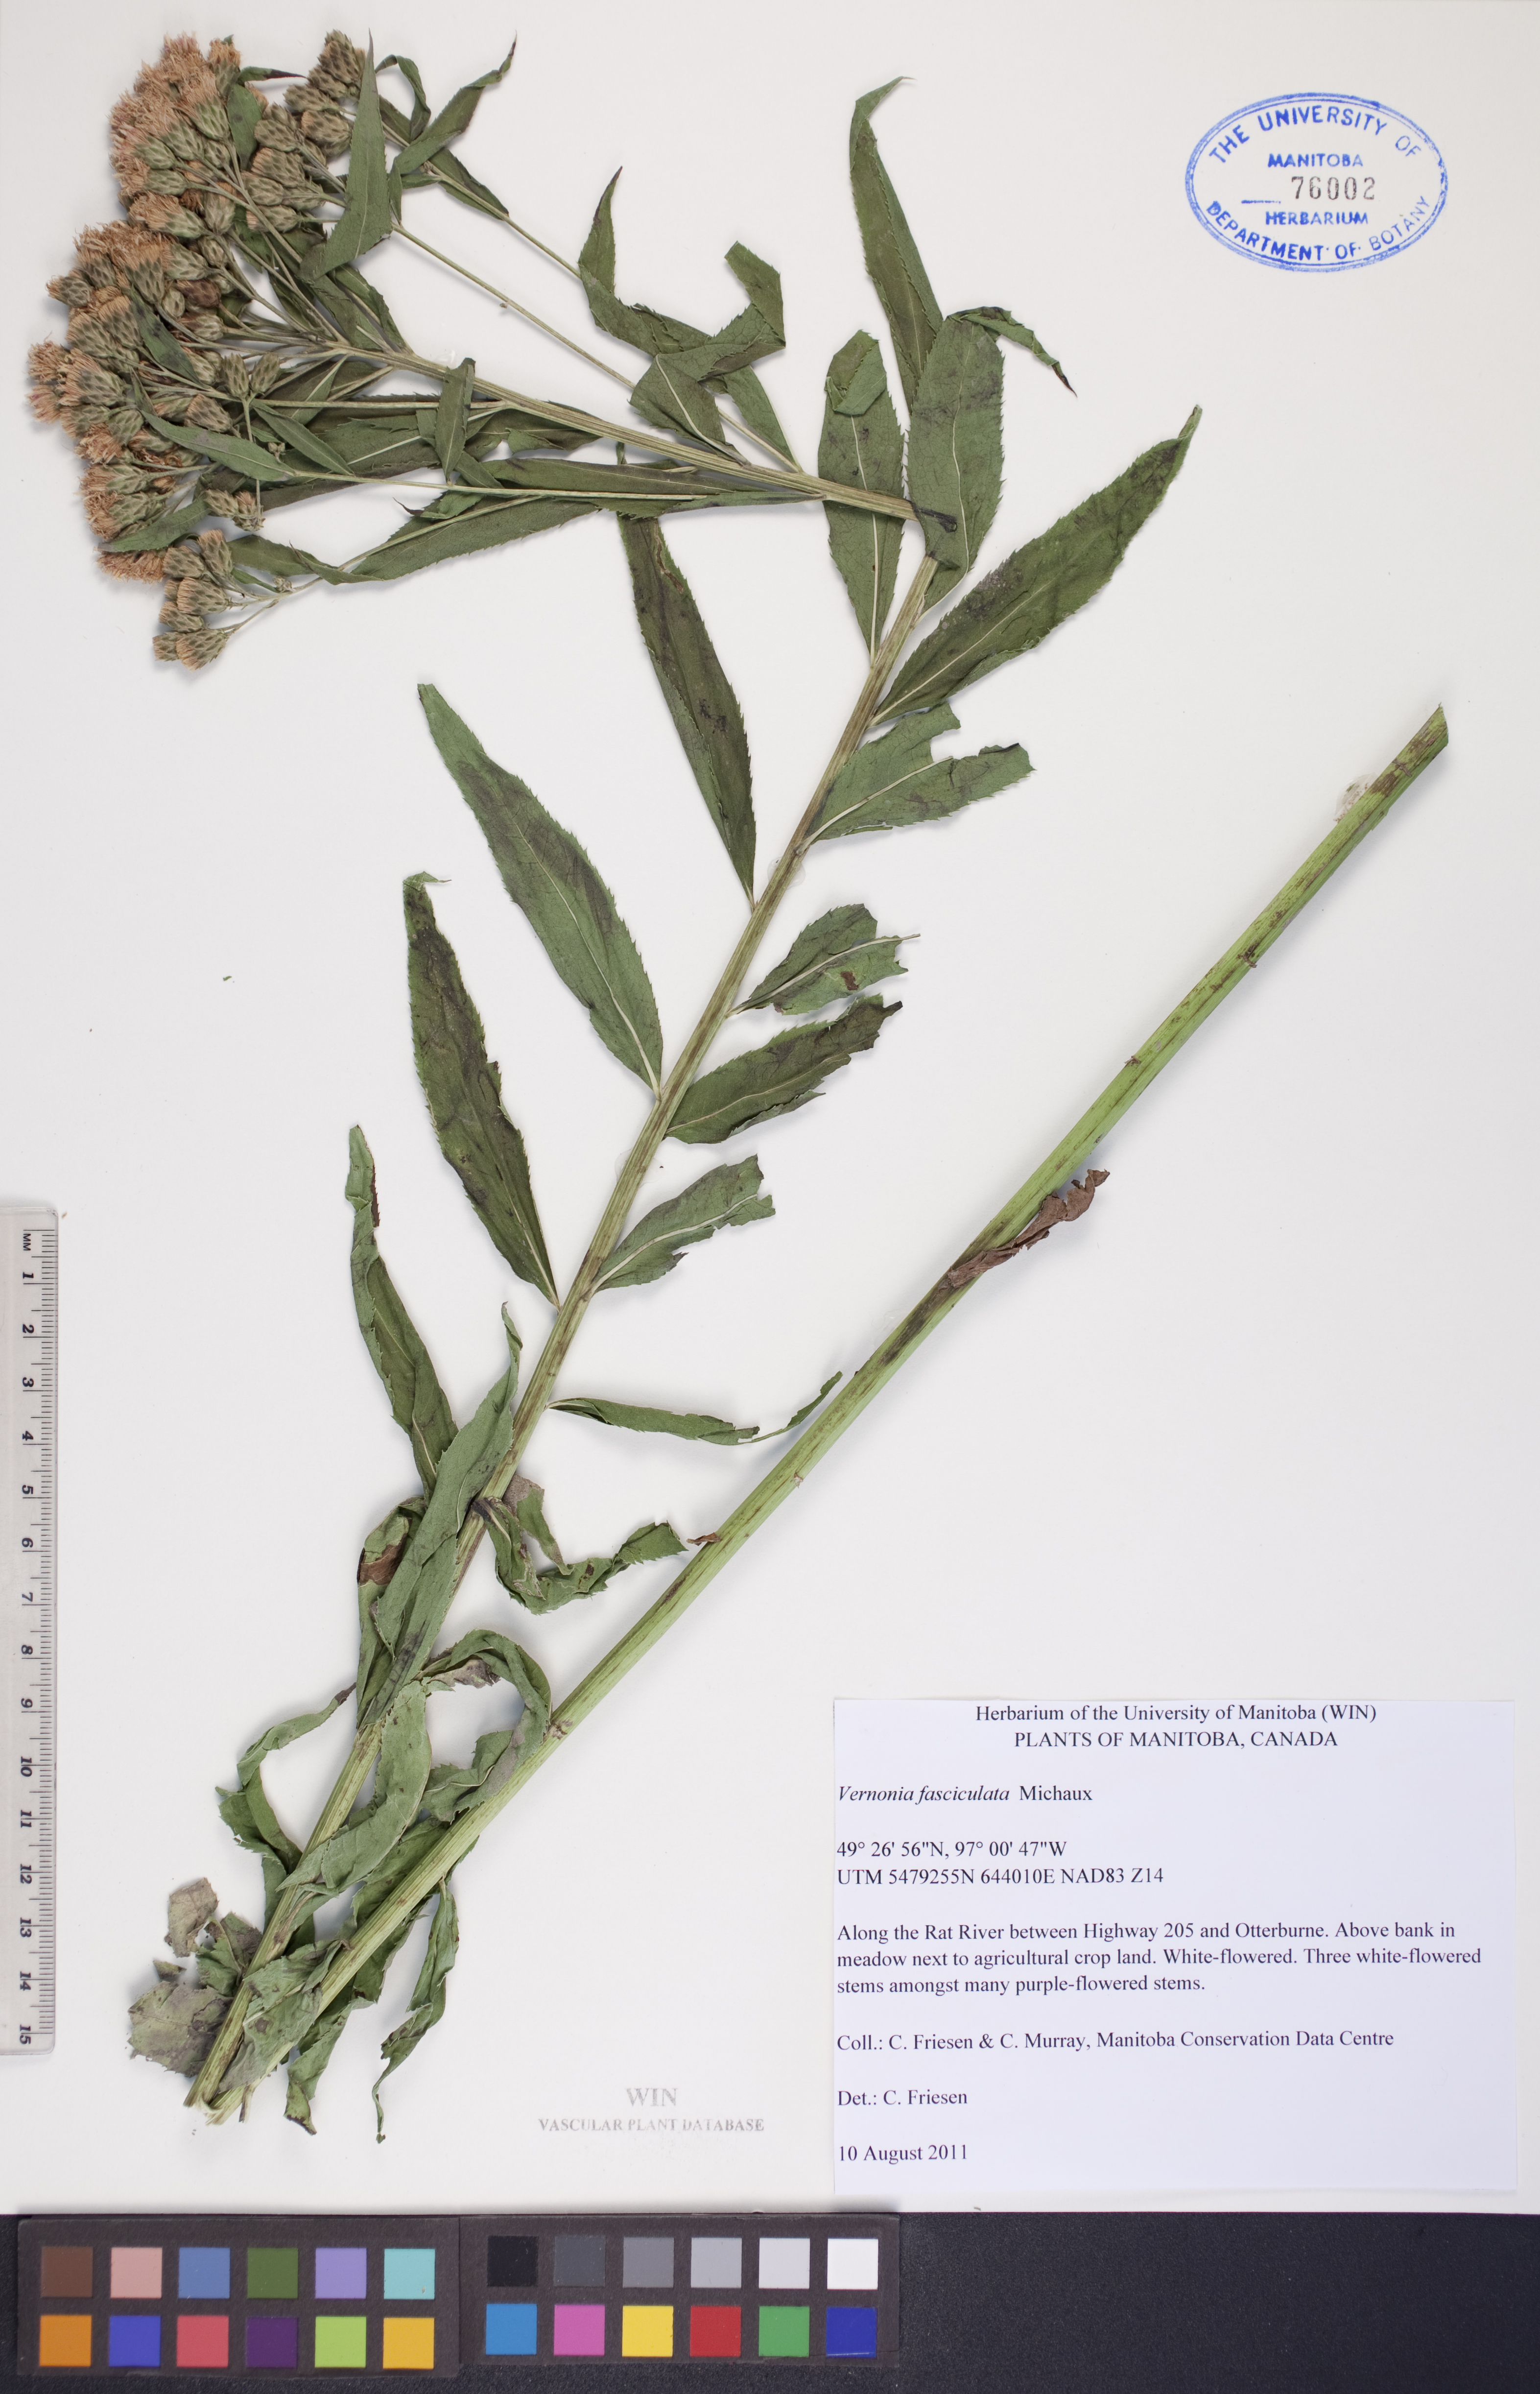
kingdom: Plantae
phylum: Tracheophyta
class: Magnoliopsida
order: Asterales
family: Asteraceae
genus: Vernonia
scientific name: Vernonia fasciculata
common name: Fascicled ironweed
